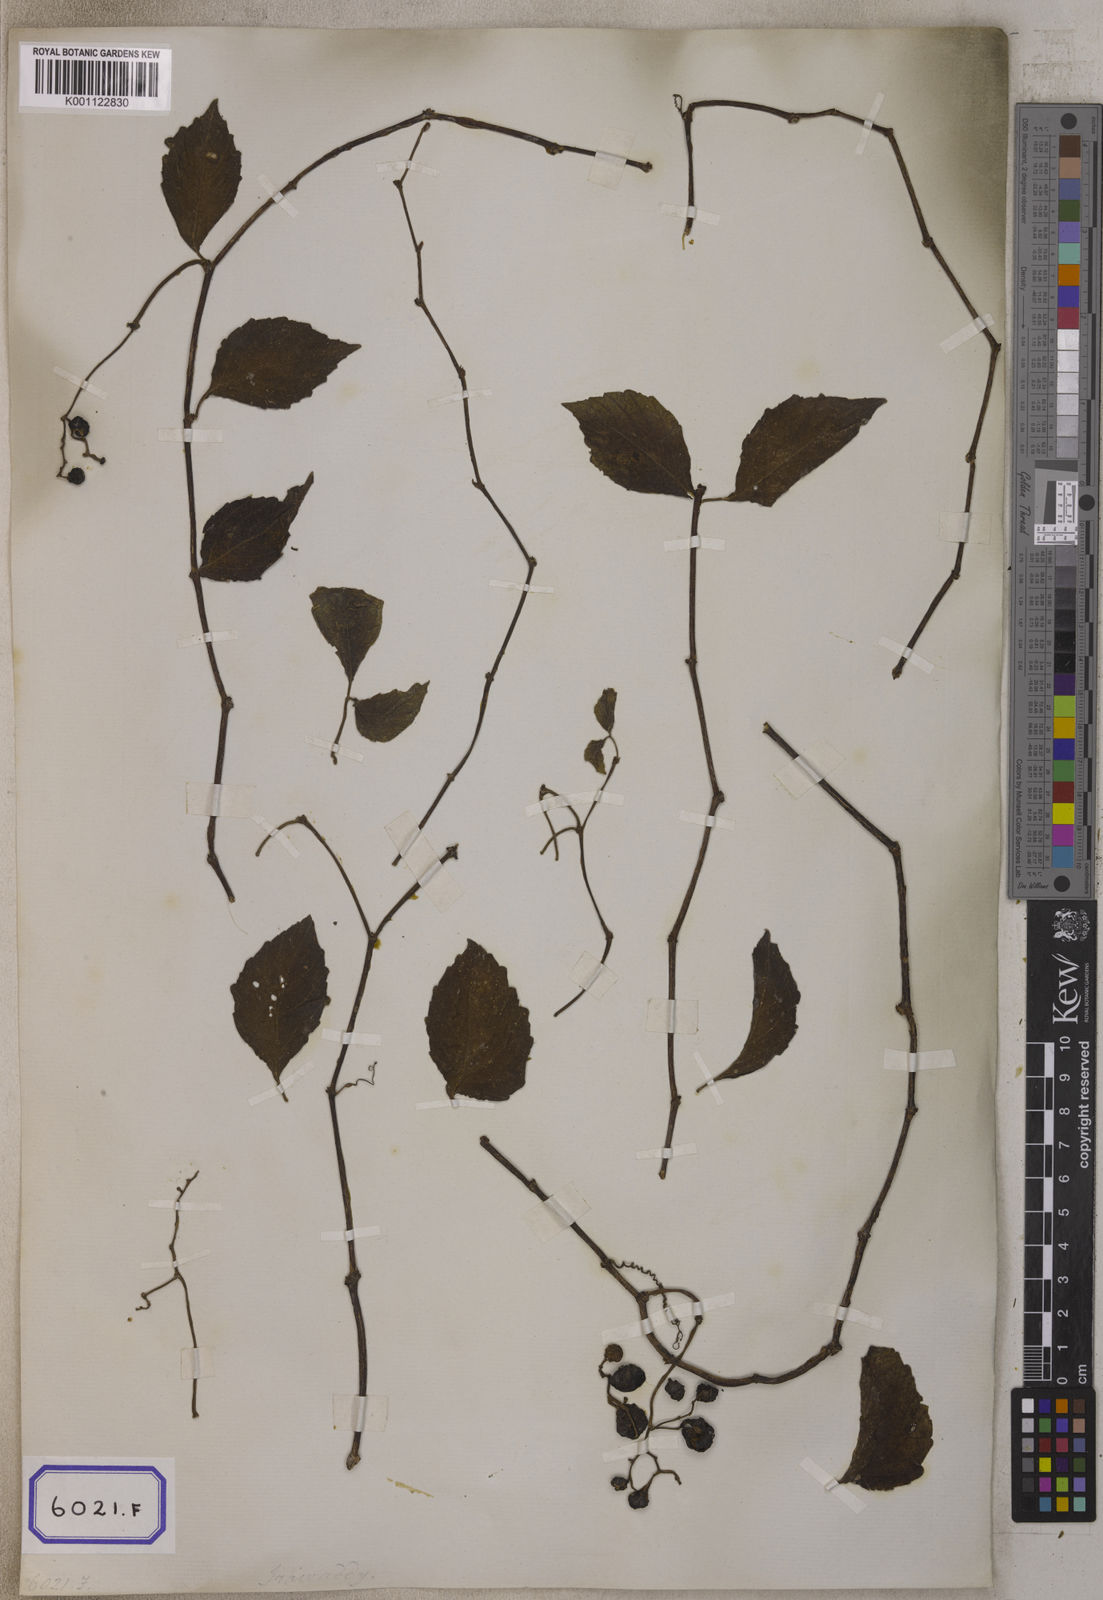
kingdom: Plantae
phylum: Tracheophyta
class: Magnoliopsida
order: Vitales
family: Vitaceae
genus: Causonis
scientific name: Causonis trifolia
